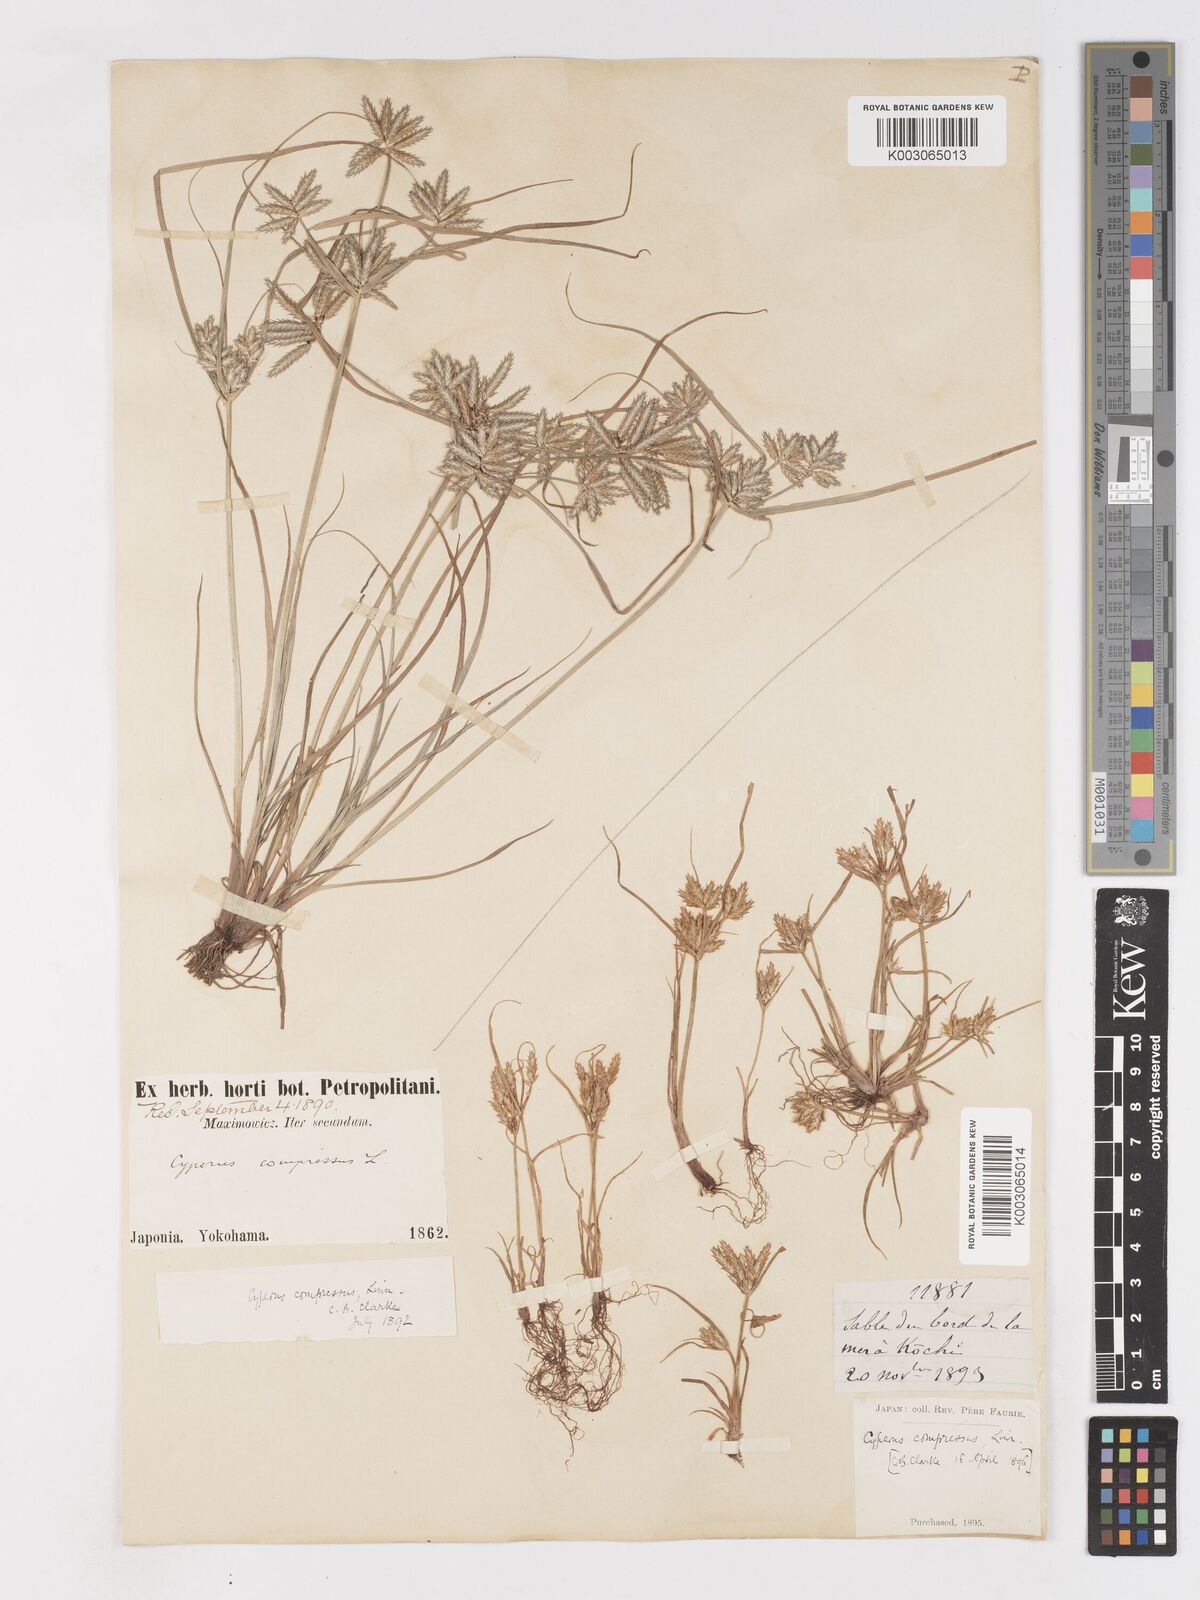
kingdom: Plantae
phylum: Tracheophyta
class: Liliopsida
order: Poales
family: Cyperaceae
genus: Cyperus
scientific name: Cyperus compressus
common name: Poorland flatsedge
